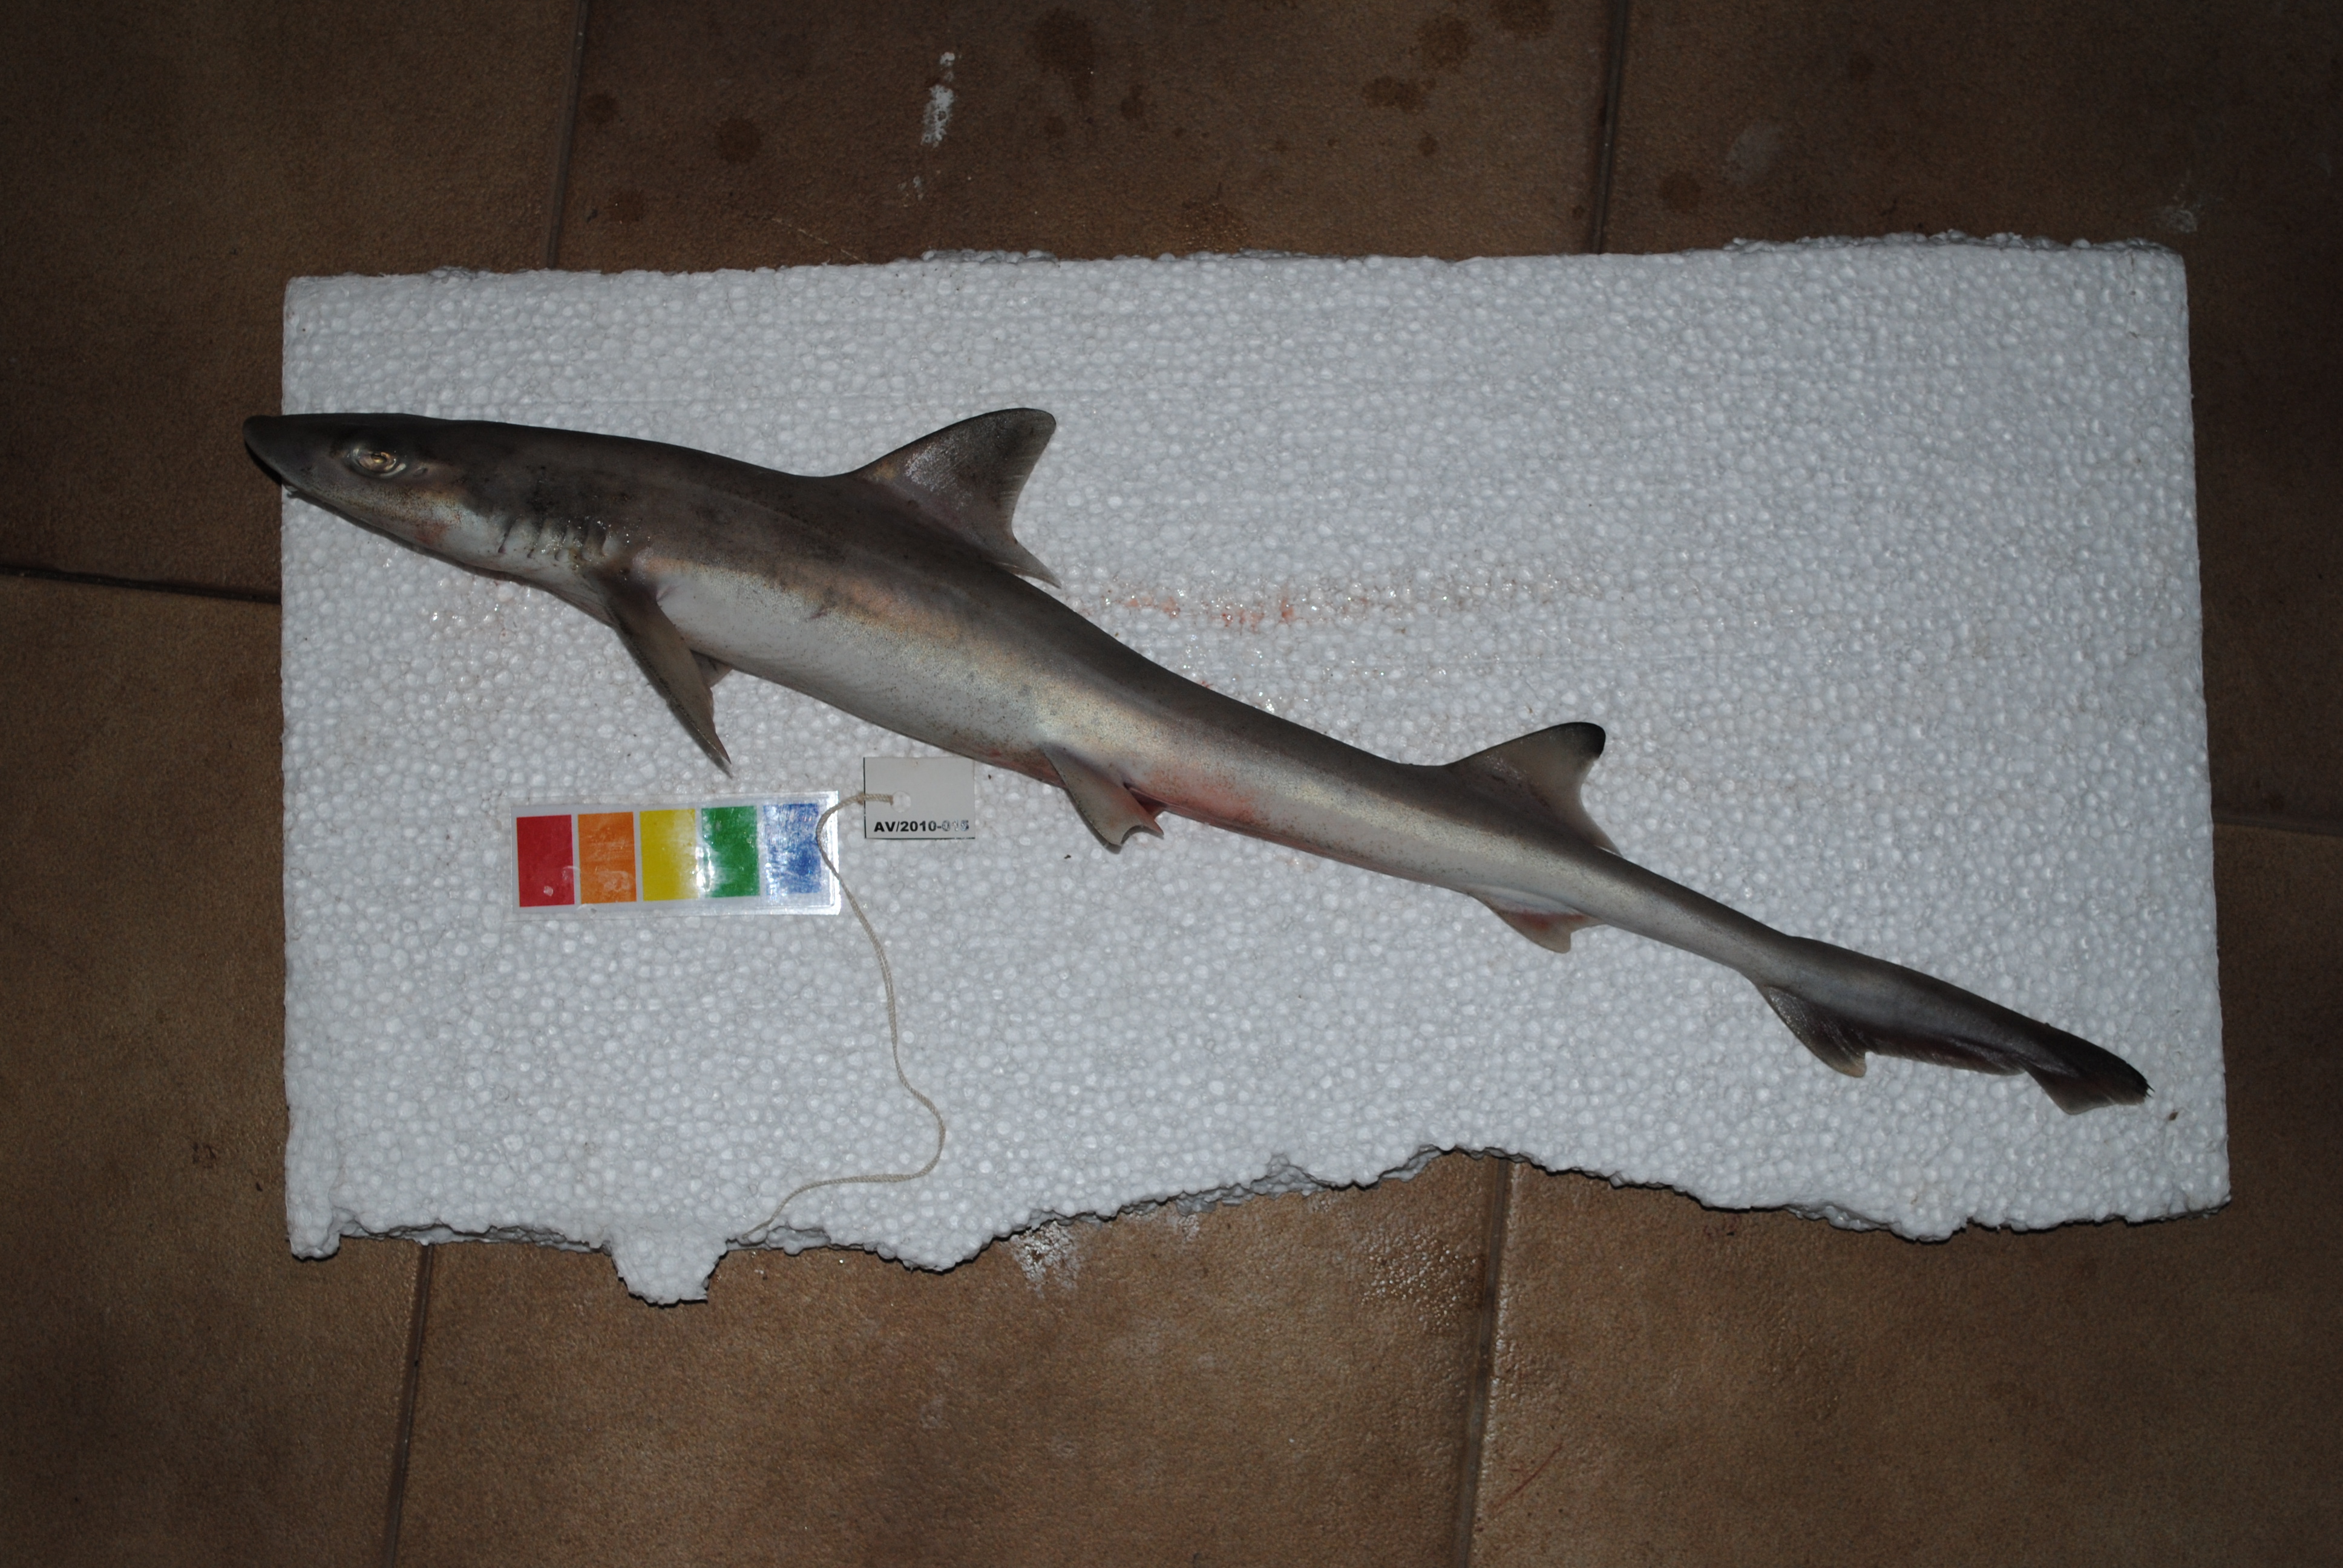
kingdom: Animalia
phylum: Chordata
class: Elasmobranchii
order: Carcharhiniformes
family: Triakidae
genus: Mustelus
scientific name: Mustelus mosis
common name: Arabian smooth-hound
